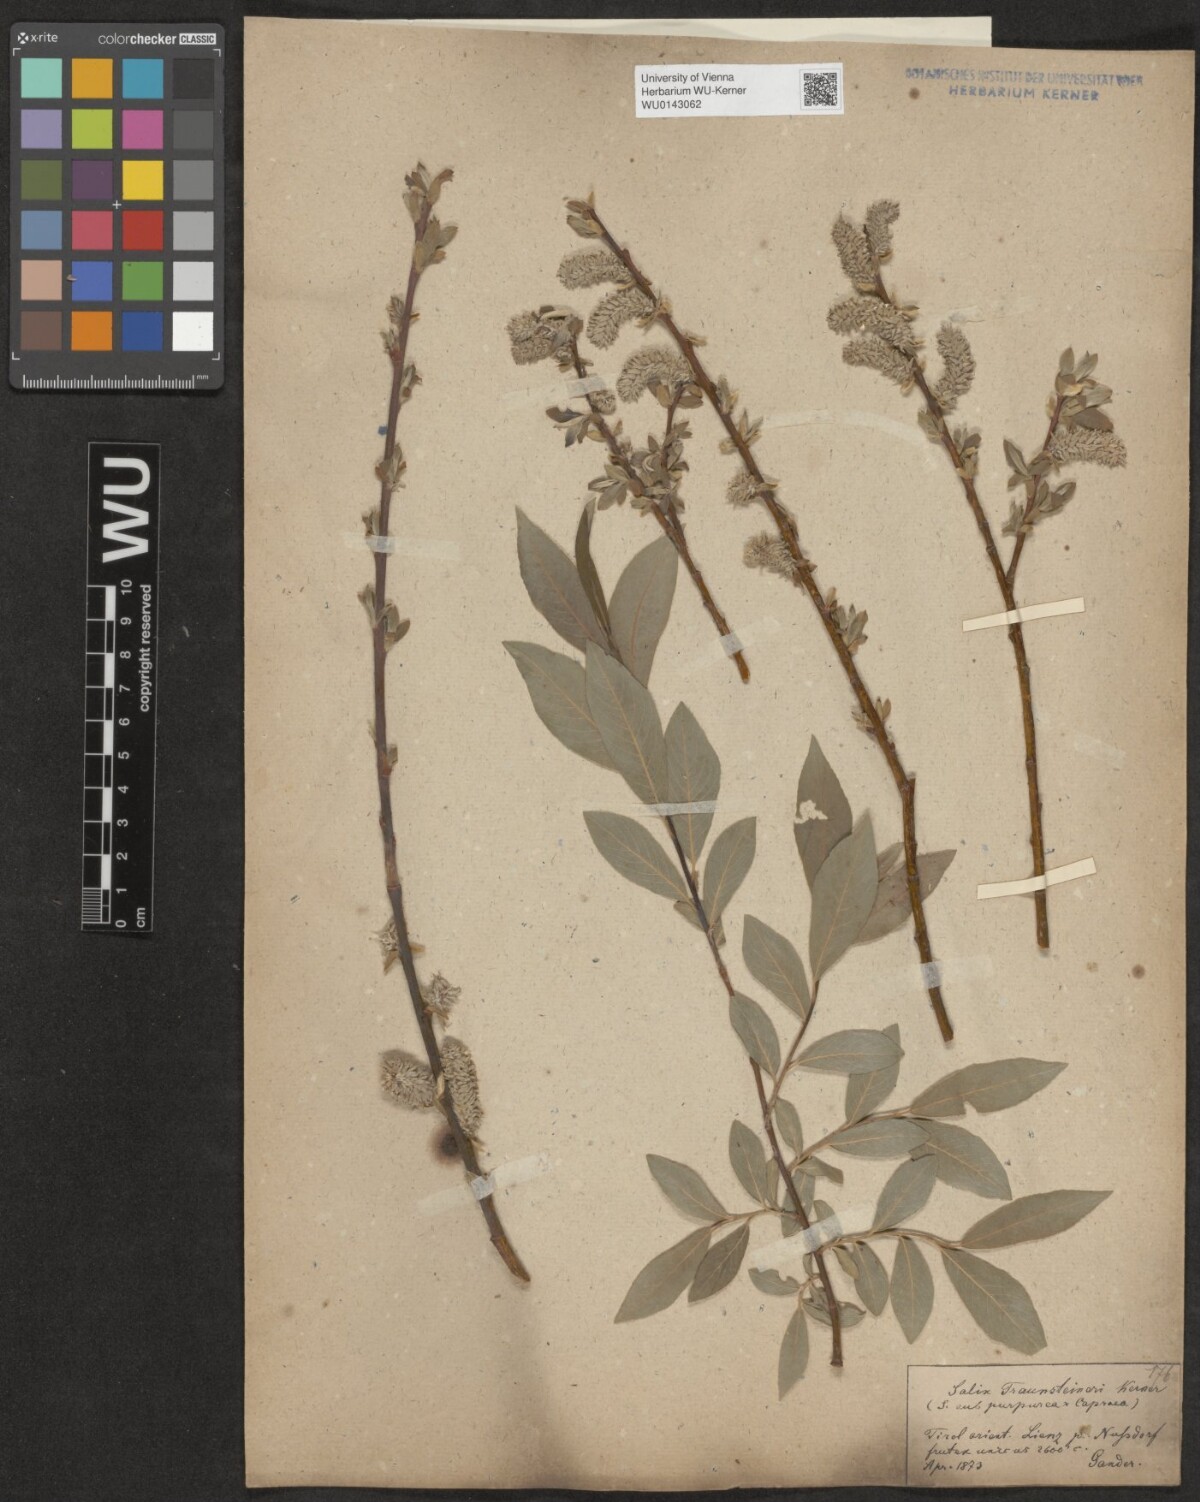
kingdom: Plantae
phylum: Tracheophyta
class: Magnoliopsida
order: Malpighiales
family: Salicaceae
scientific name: Salicaceae
